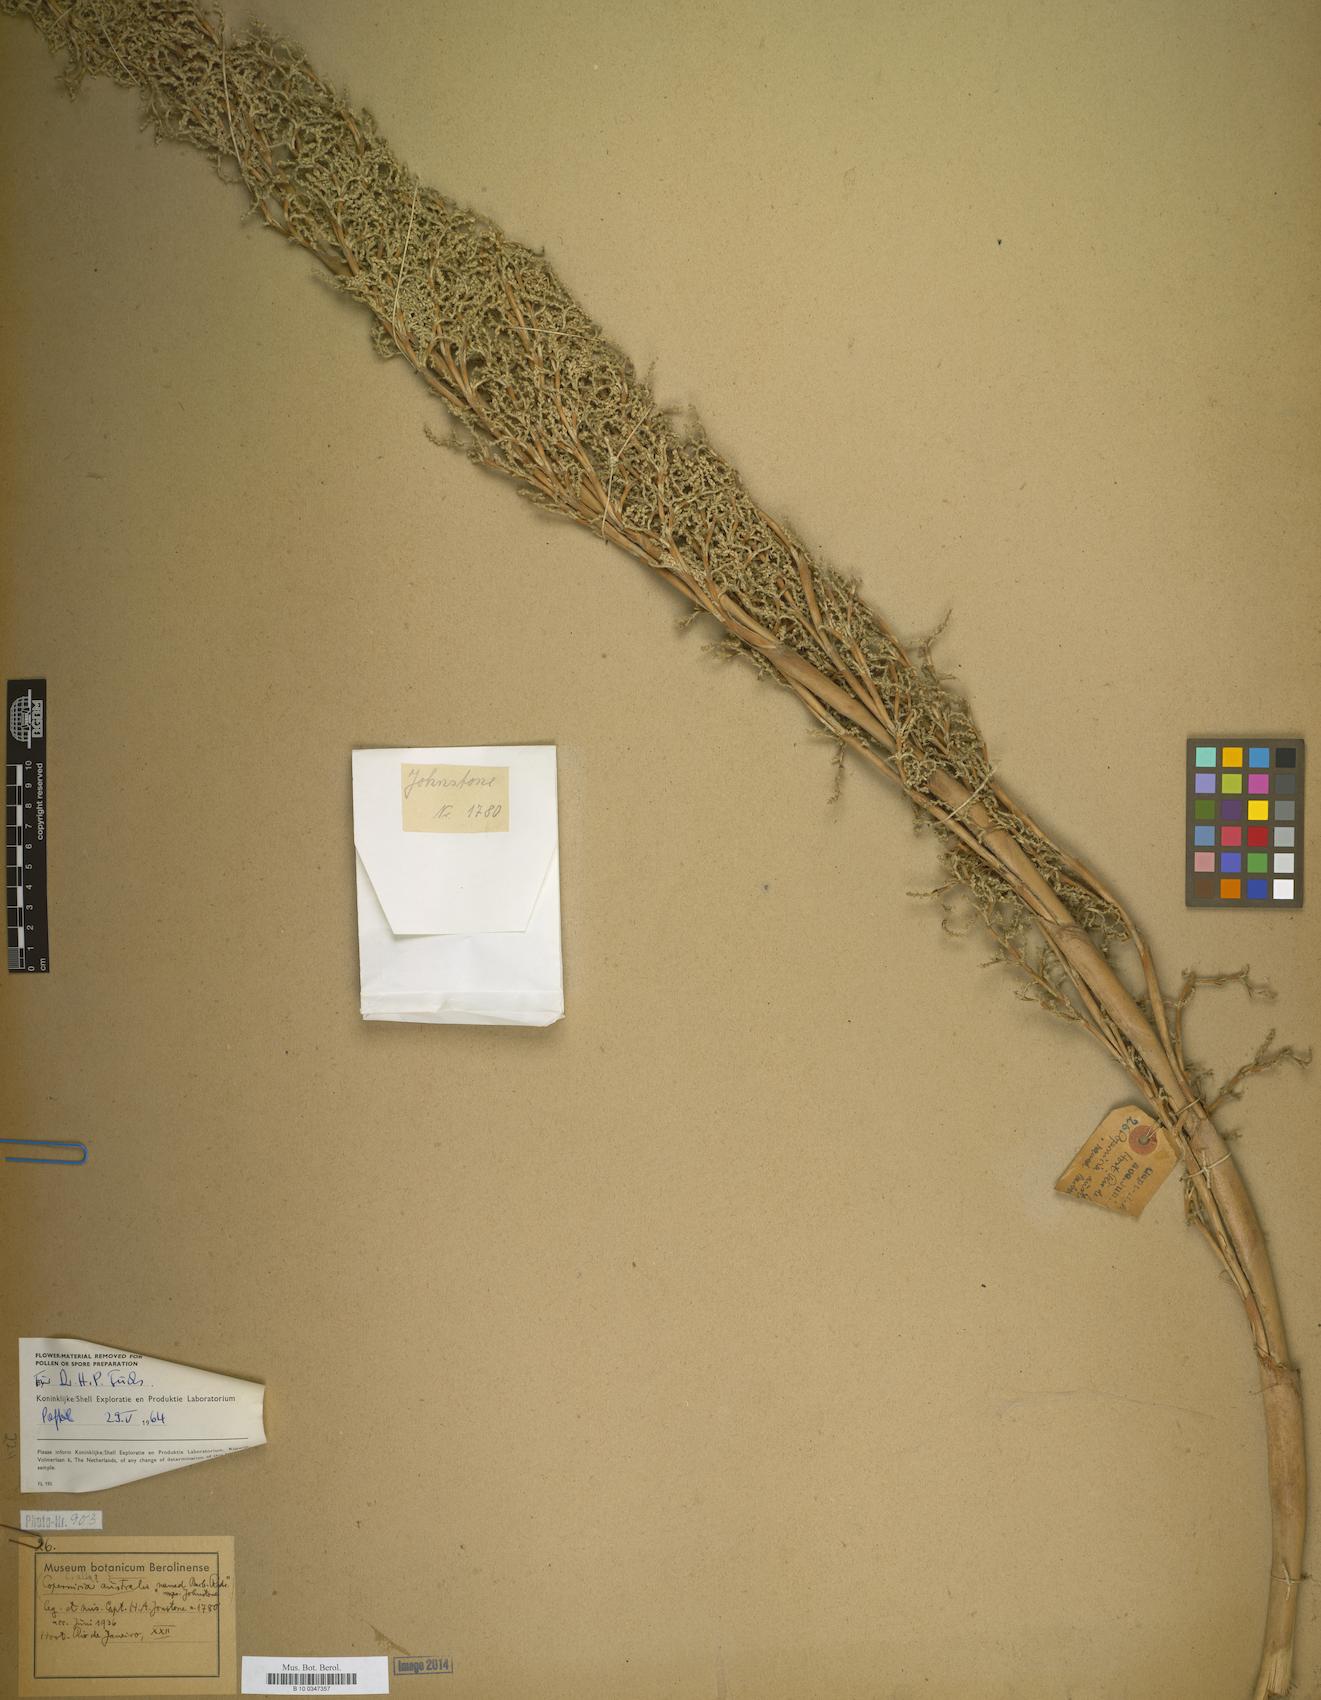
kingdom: Plantae
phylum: Tracheophyta
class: Liliopsida
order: Arecales
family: Arecaceae
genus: Copernicia
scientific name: Copernicia alba
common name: Caranday palm
